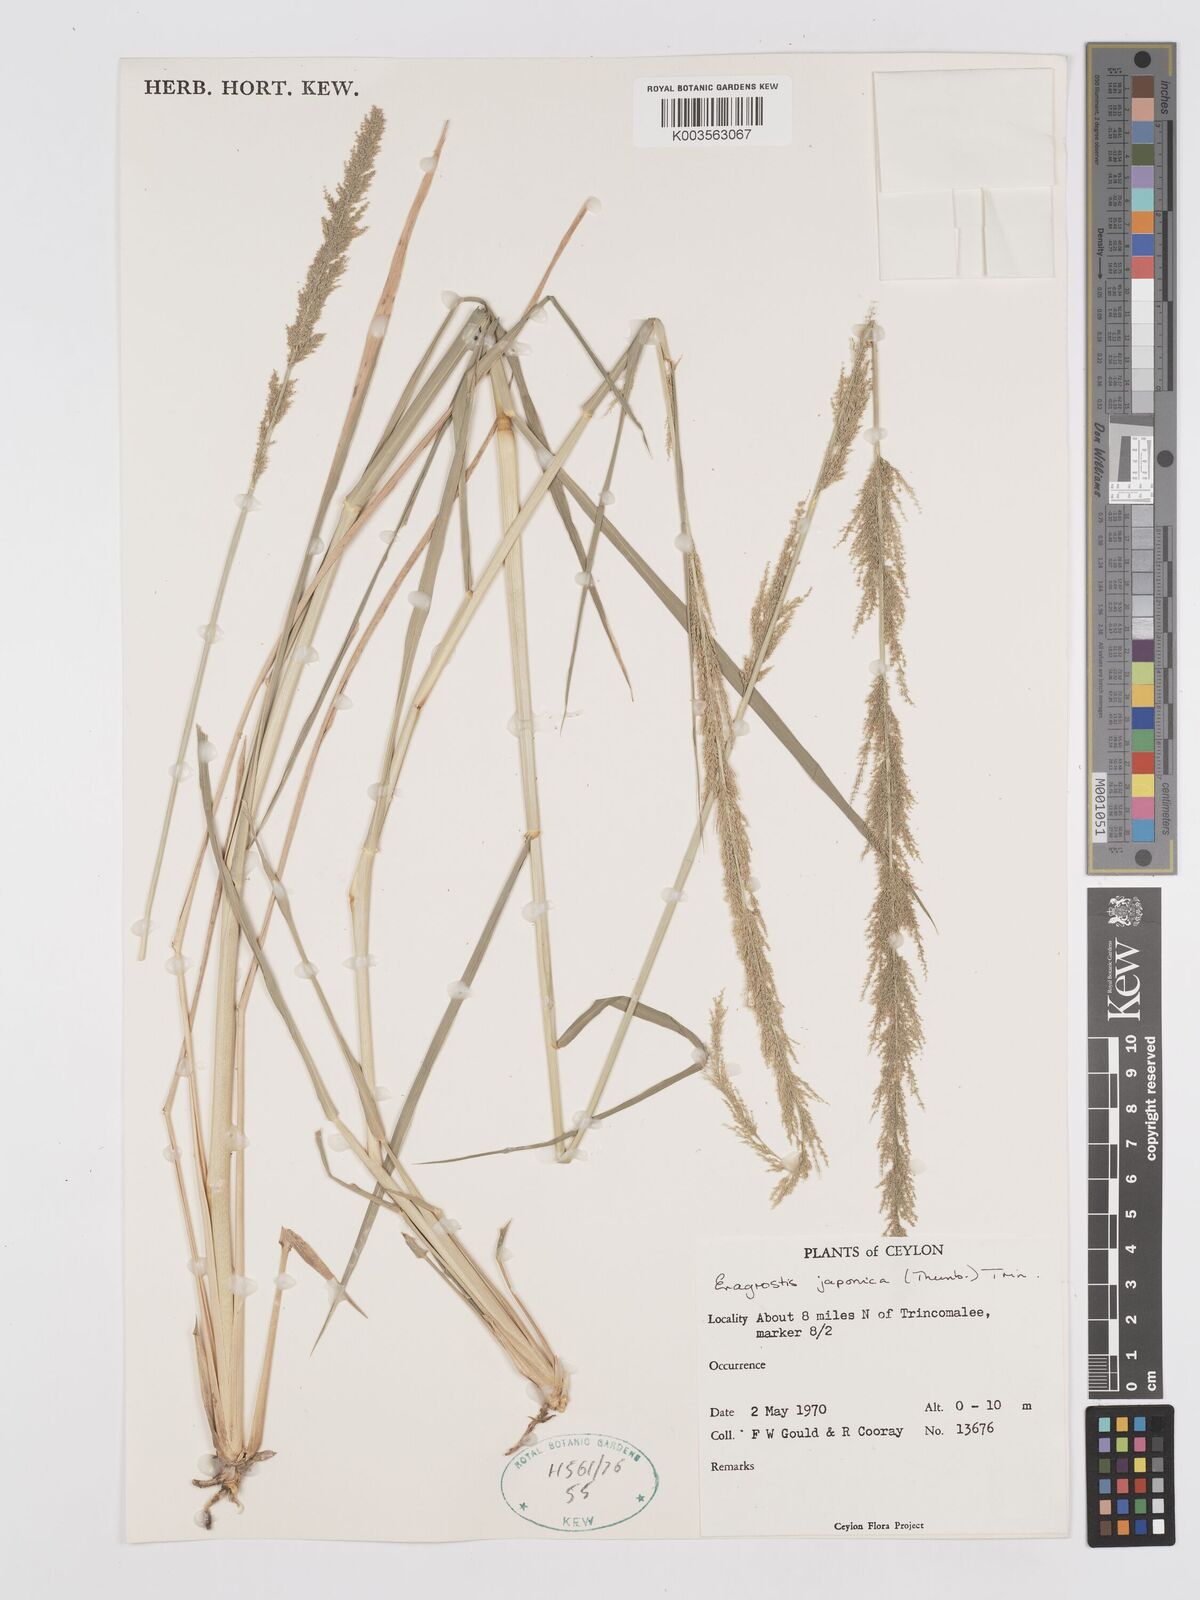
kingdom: Plantae
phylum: Tracheophyta
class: Liliopsida
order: Poales
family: Poaceae
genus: Eragrostis
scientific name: Eragrostis japonica
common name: Pond lovegrass
